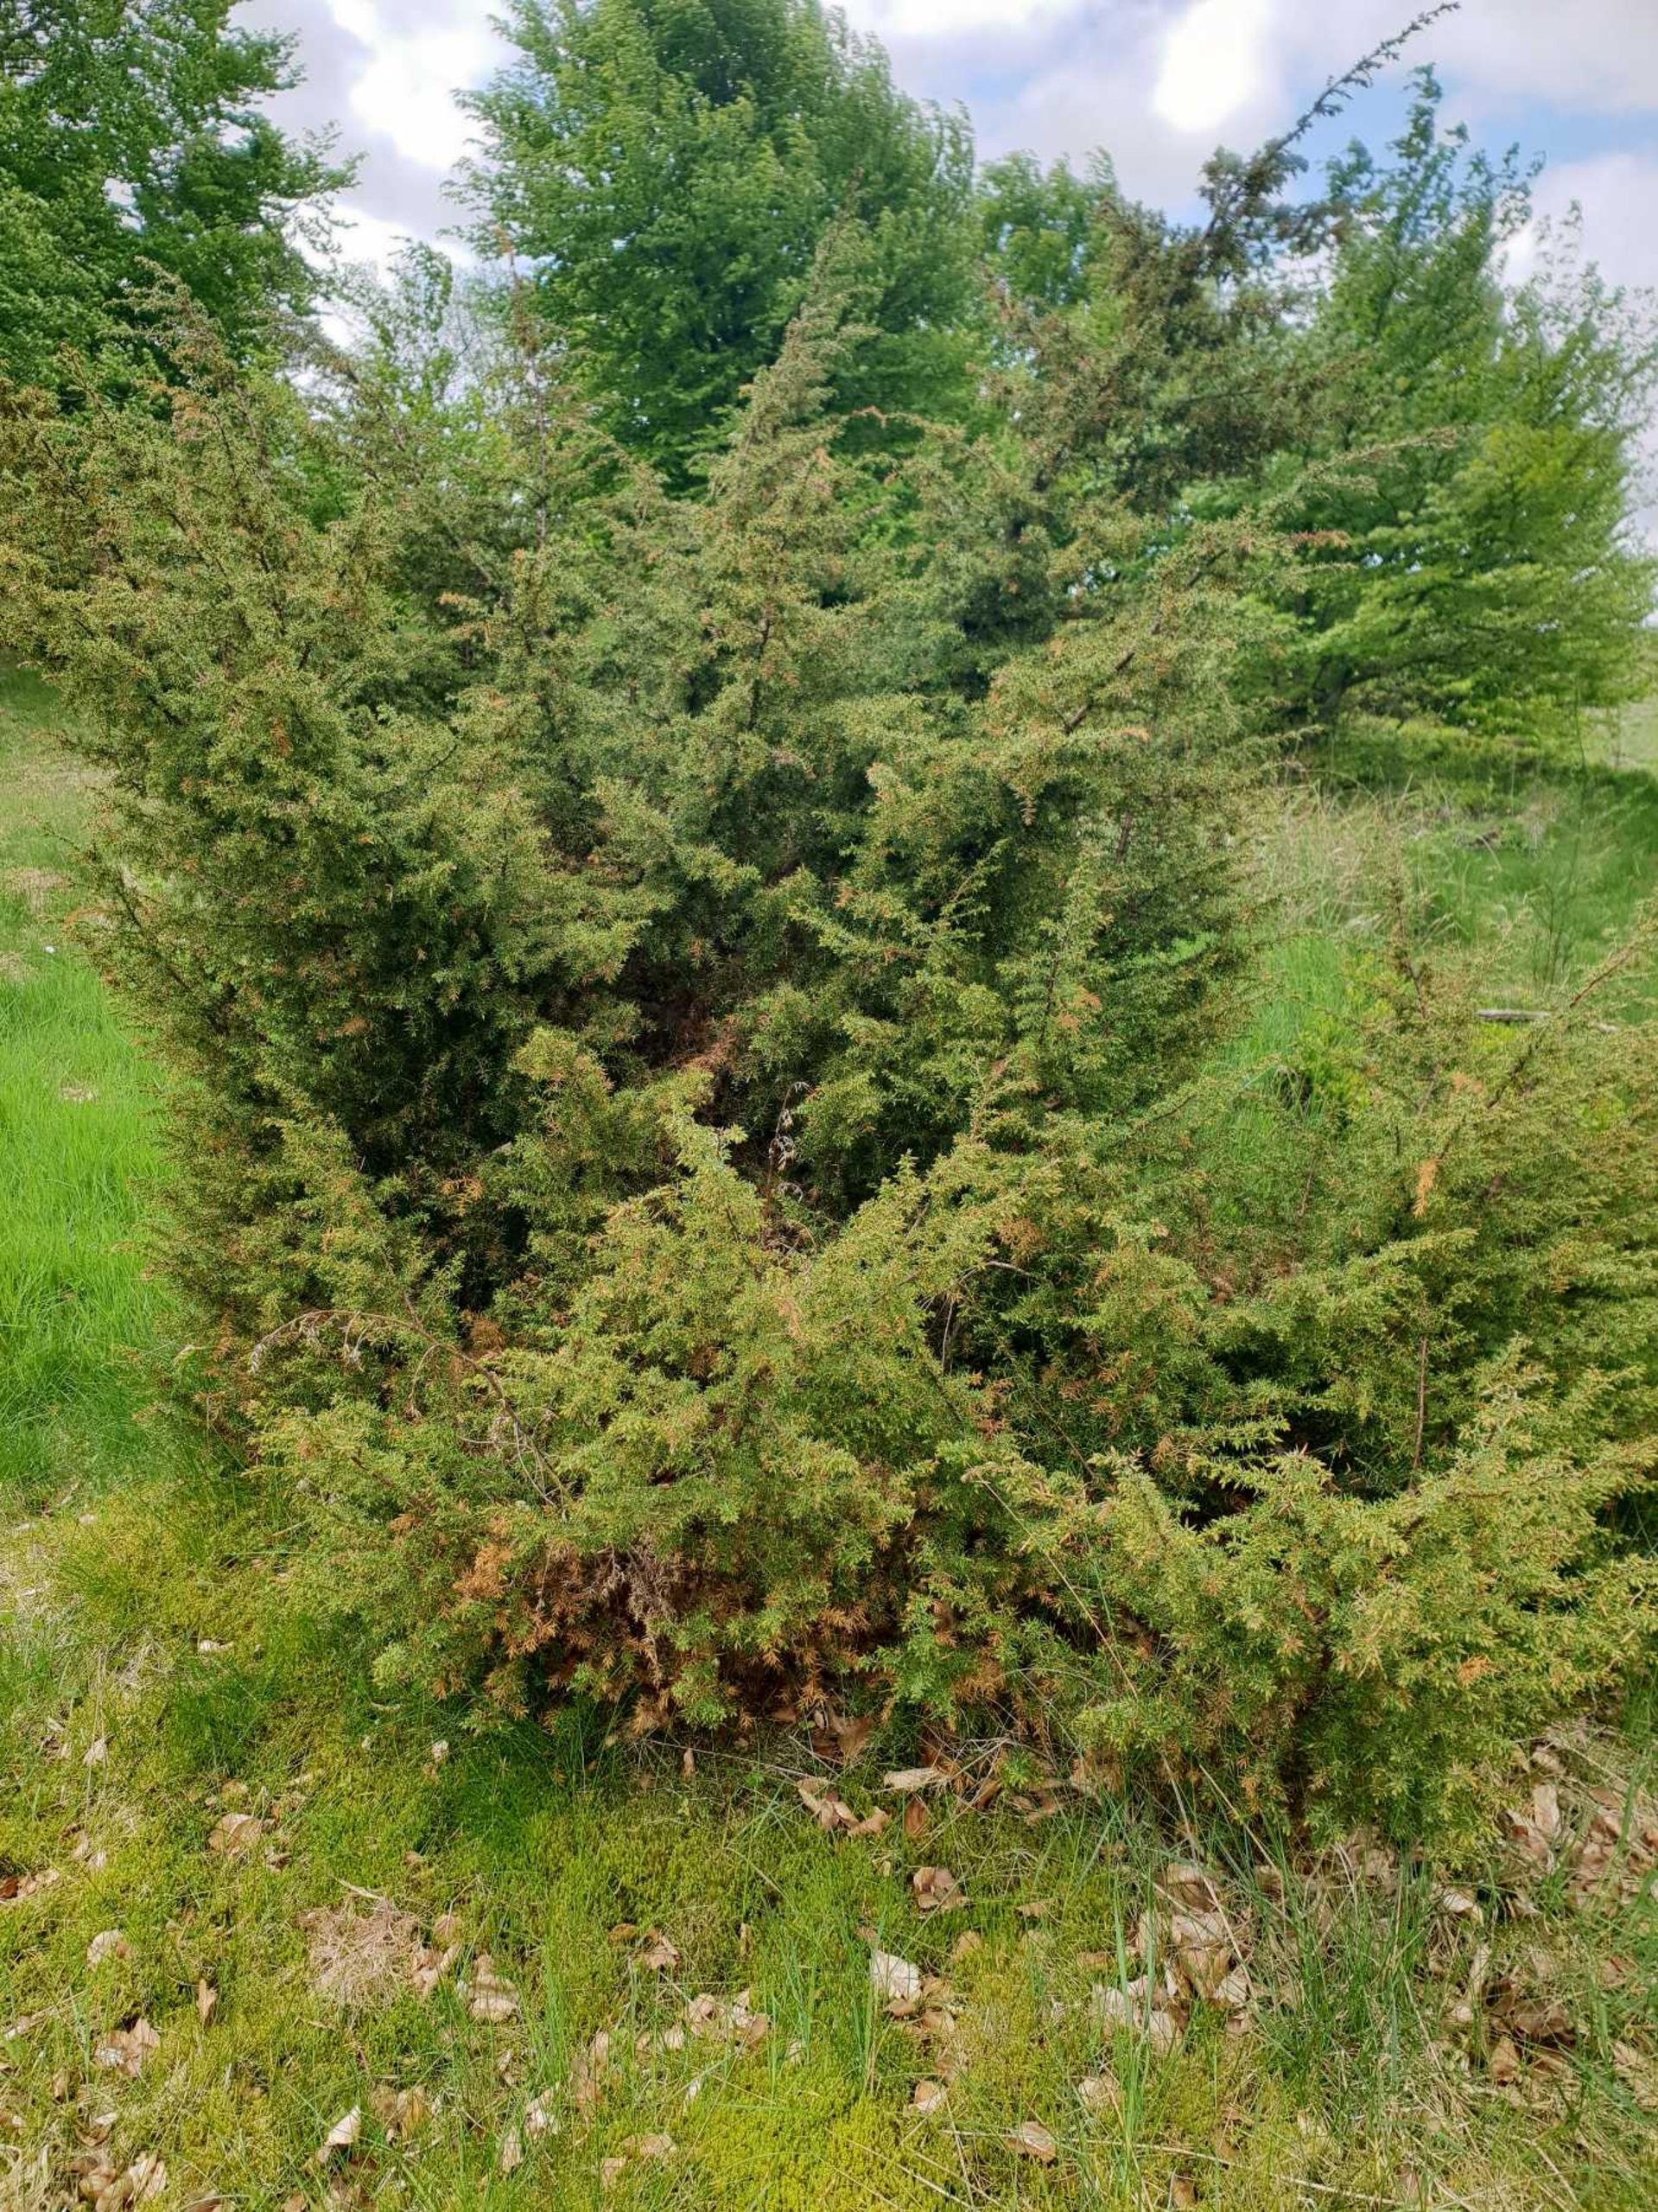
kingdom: Plantae
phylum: Tracheophyta
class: Pinopsida
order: Pinales
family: Cupressaceae
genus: Juniperus
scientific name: Juniperus communis
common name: Almindelig ene
